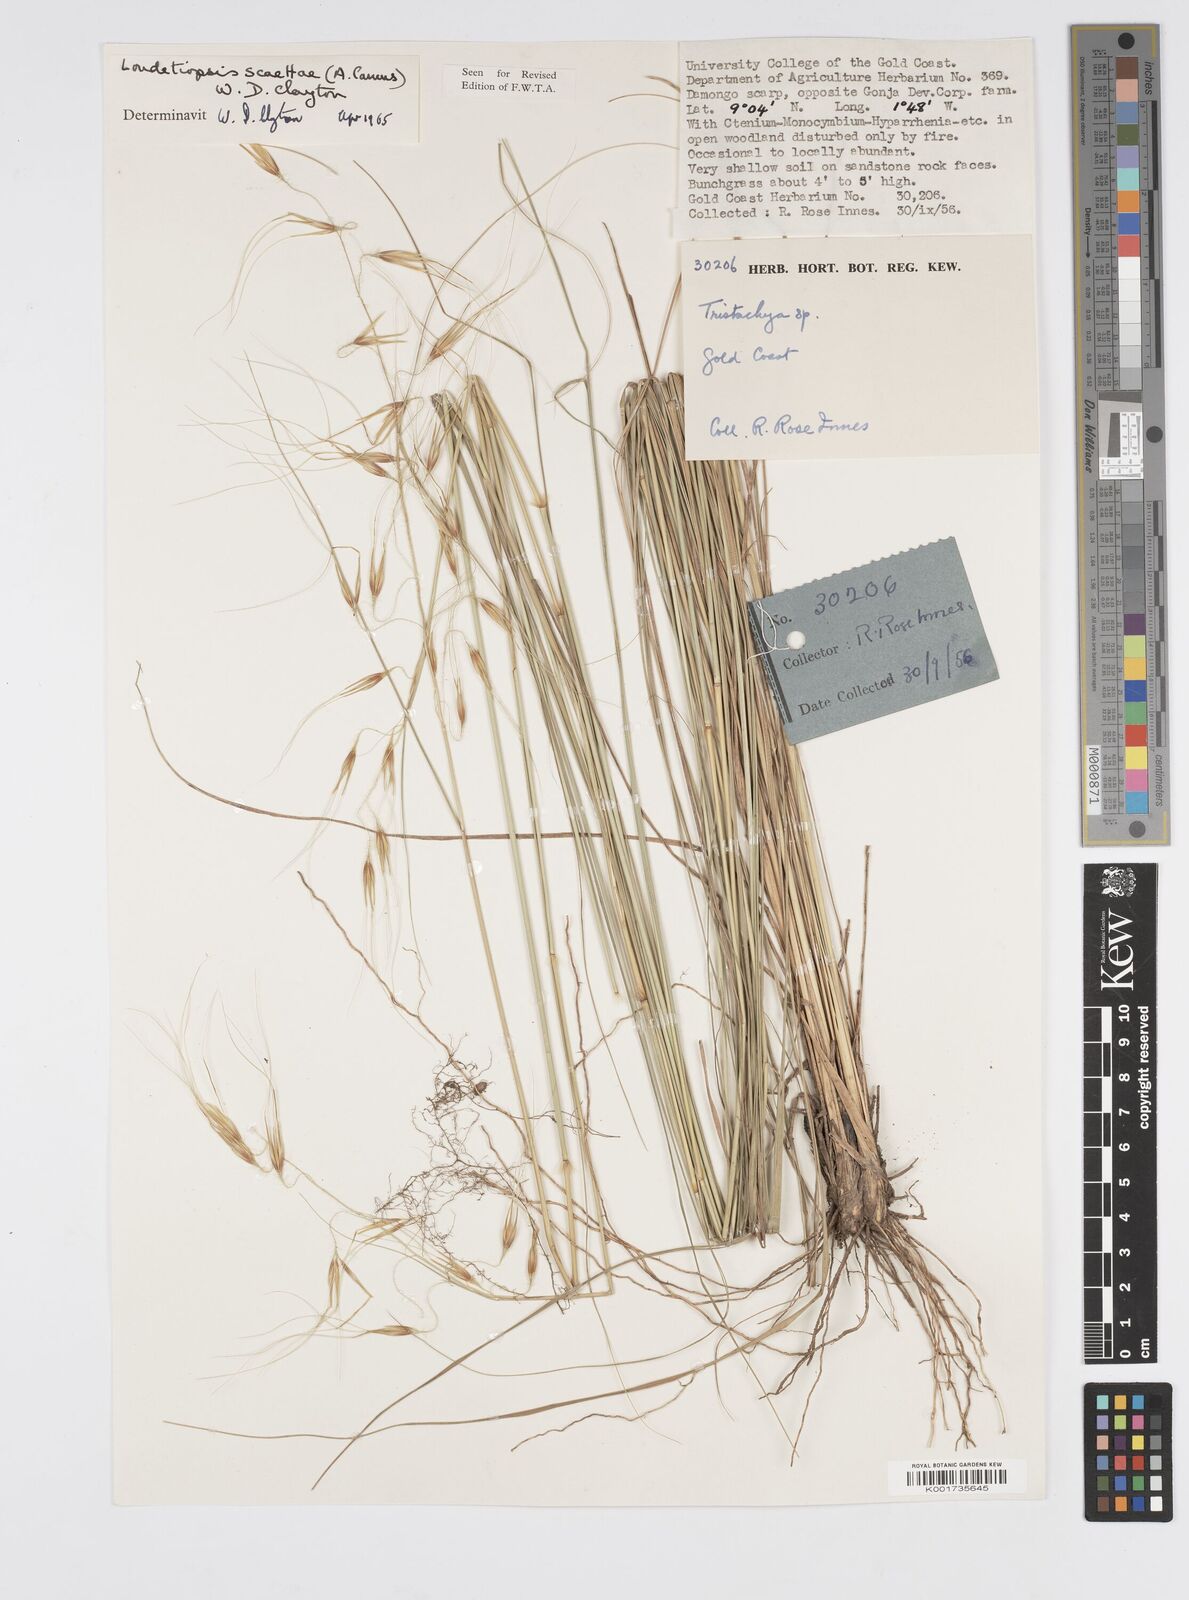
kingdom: Plantae
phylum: Tracheophyta
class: Liliopsida
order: Poales
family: Poaceae
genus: Loudetiopsis
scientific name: Loudetiopsis scaettae
